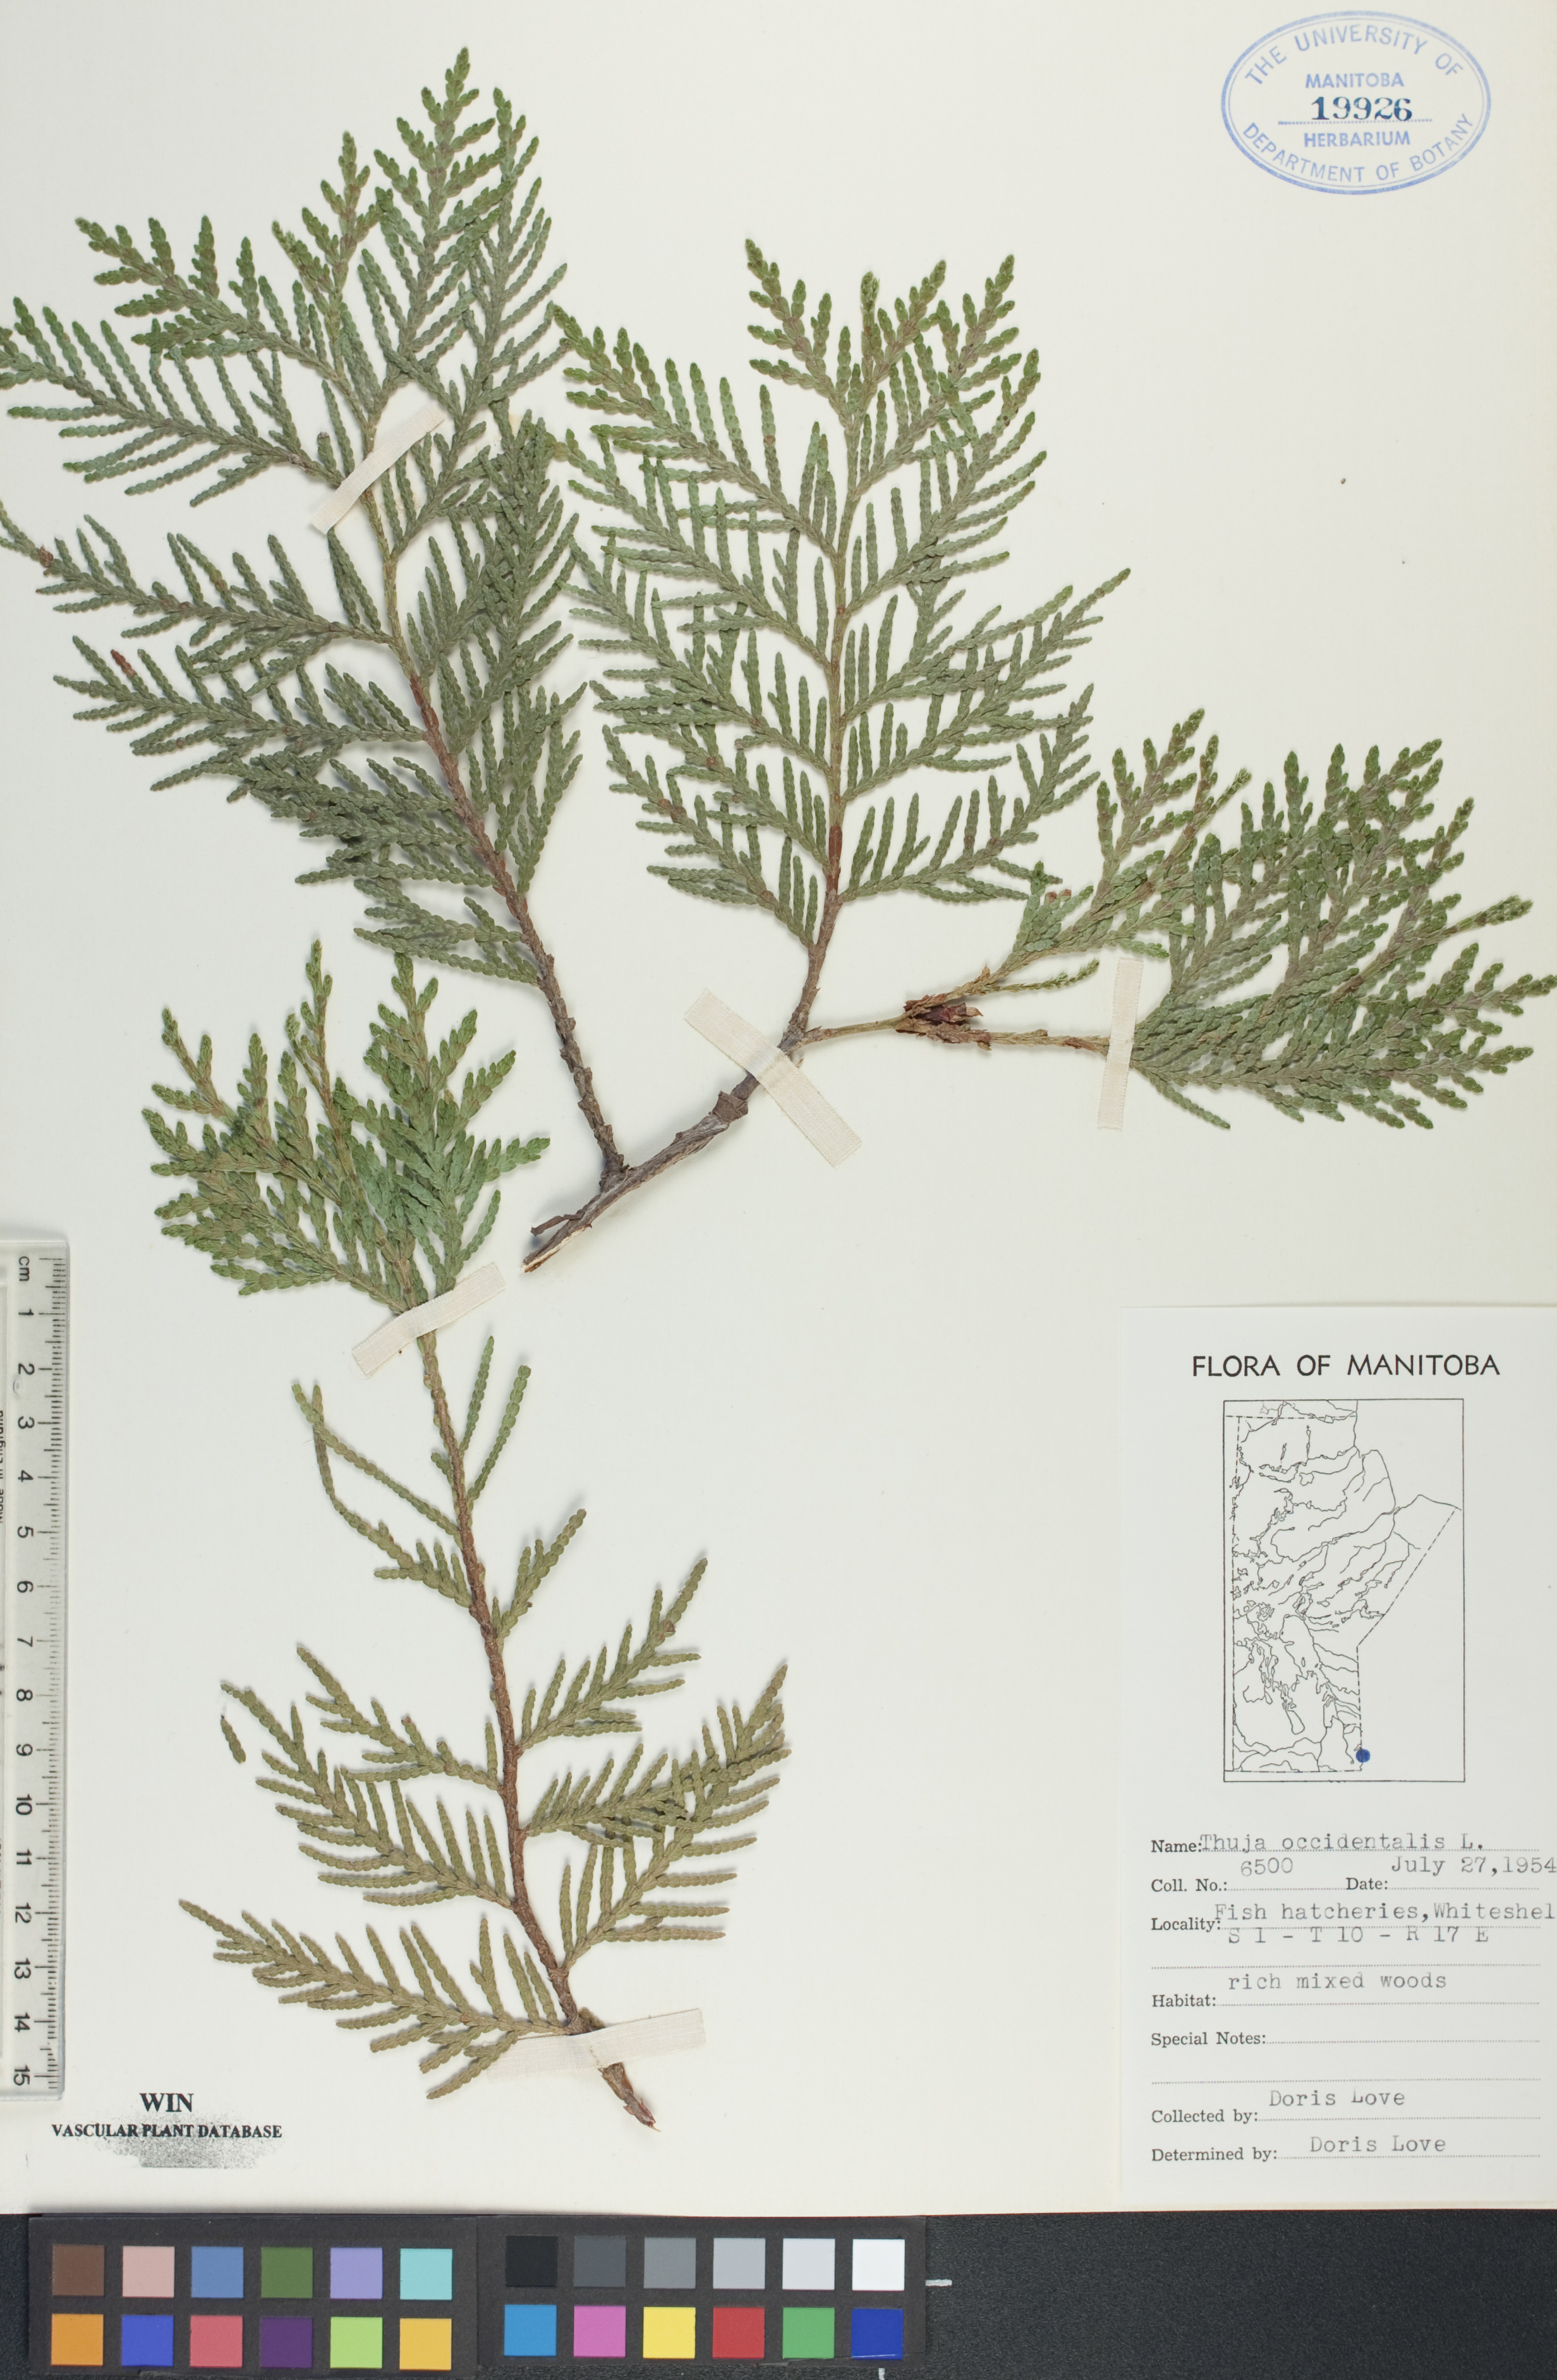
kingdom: Plantae
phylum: Tracheophyta
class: Pinopsida
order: Pinales
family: Cupressaceae
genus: Thuja
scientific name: Thuja occidentalis
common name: Northern white-cedar
